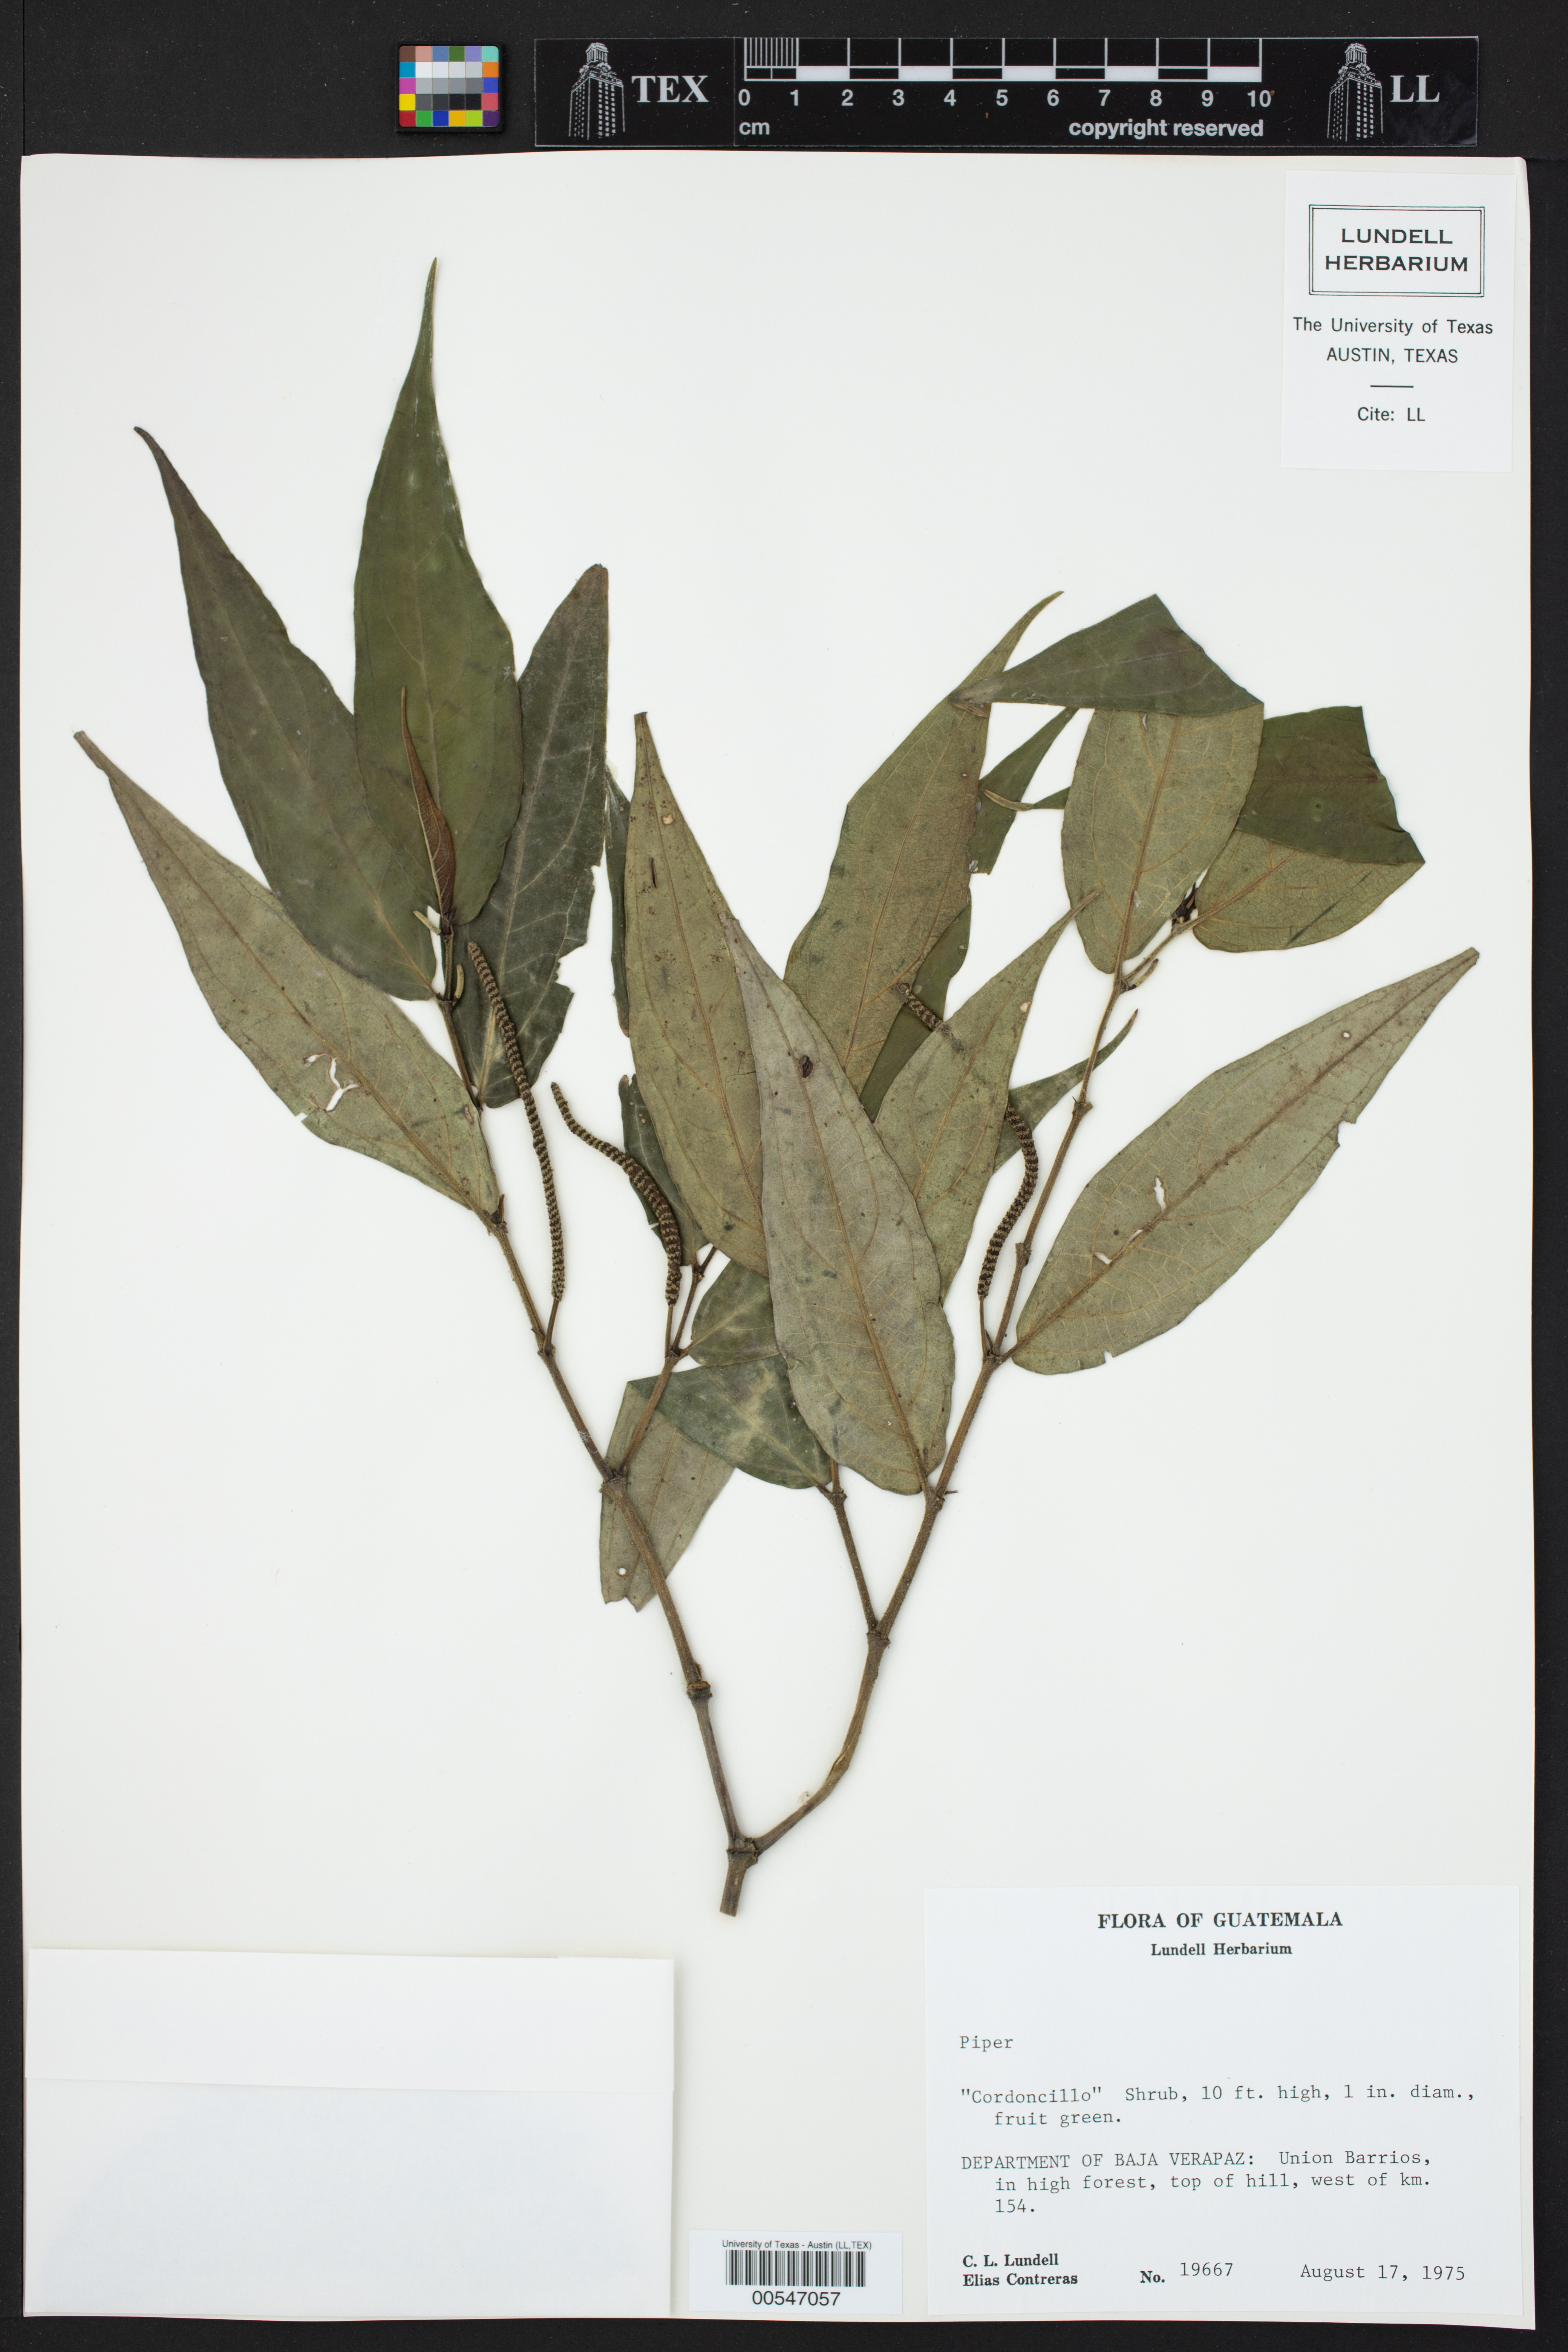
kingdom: Plantae
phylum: Tracheophyta
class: Magnoliopsida
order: Piperales
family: Piperaceae
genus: Piper
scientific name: Piper
